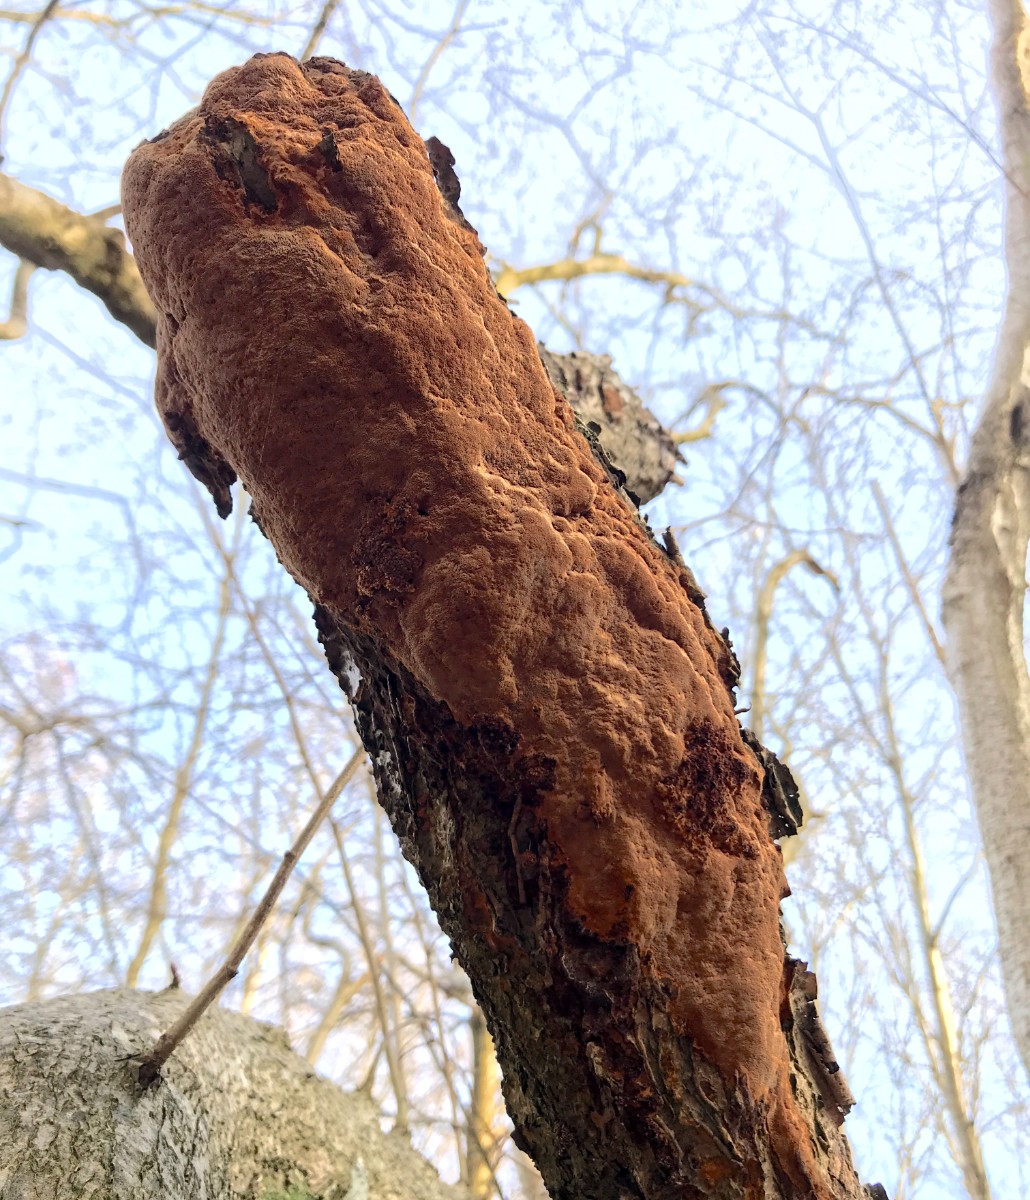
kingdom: Fungi
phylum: Basidiomycota
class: Agaricomycetes
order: Hymenochaetales
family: Hymenochaetaceae
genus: Fuscoporia
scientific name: Fuscoporia ferrea
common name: skorpe-ildporesvamp
